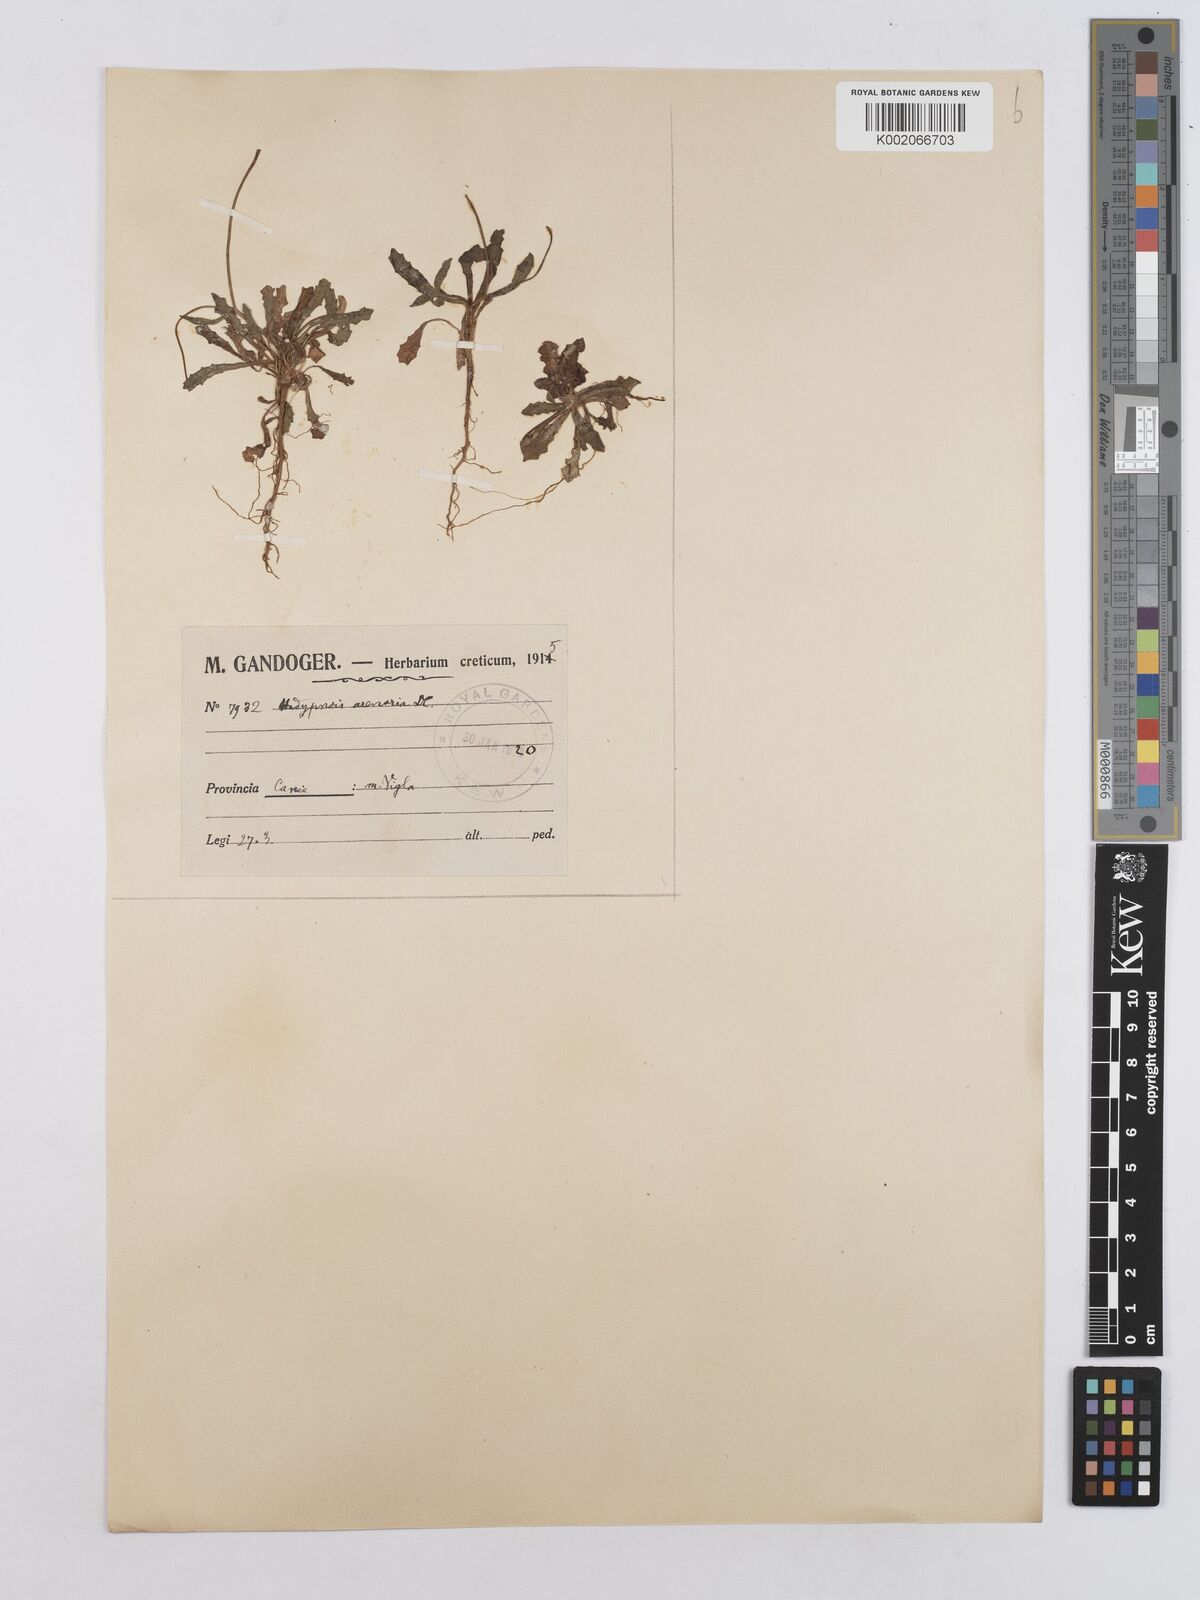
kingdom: Plantae
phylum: Tracheophyta
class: Magnoliopsida
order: Asterales
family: Asteraceae
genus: Hedypnois
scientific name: Hedypnois rhagadioloides
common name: Cretan weed
